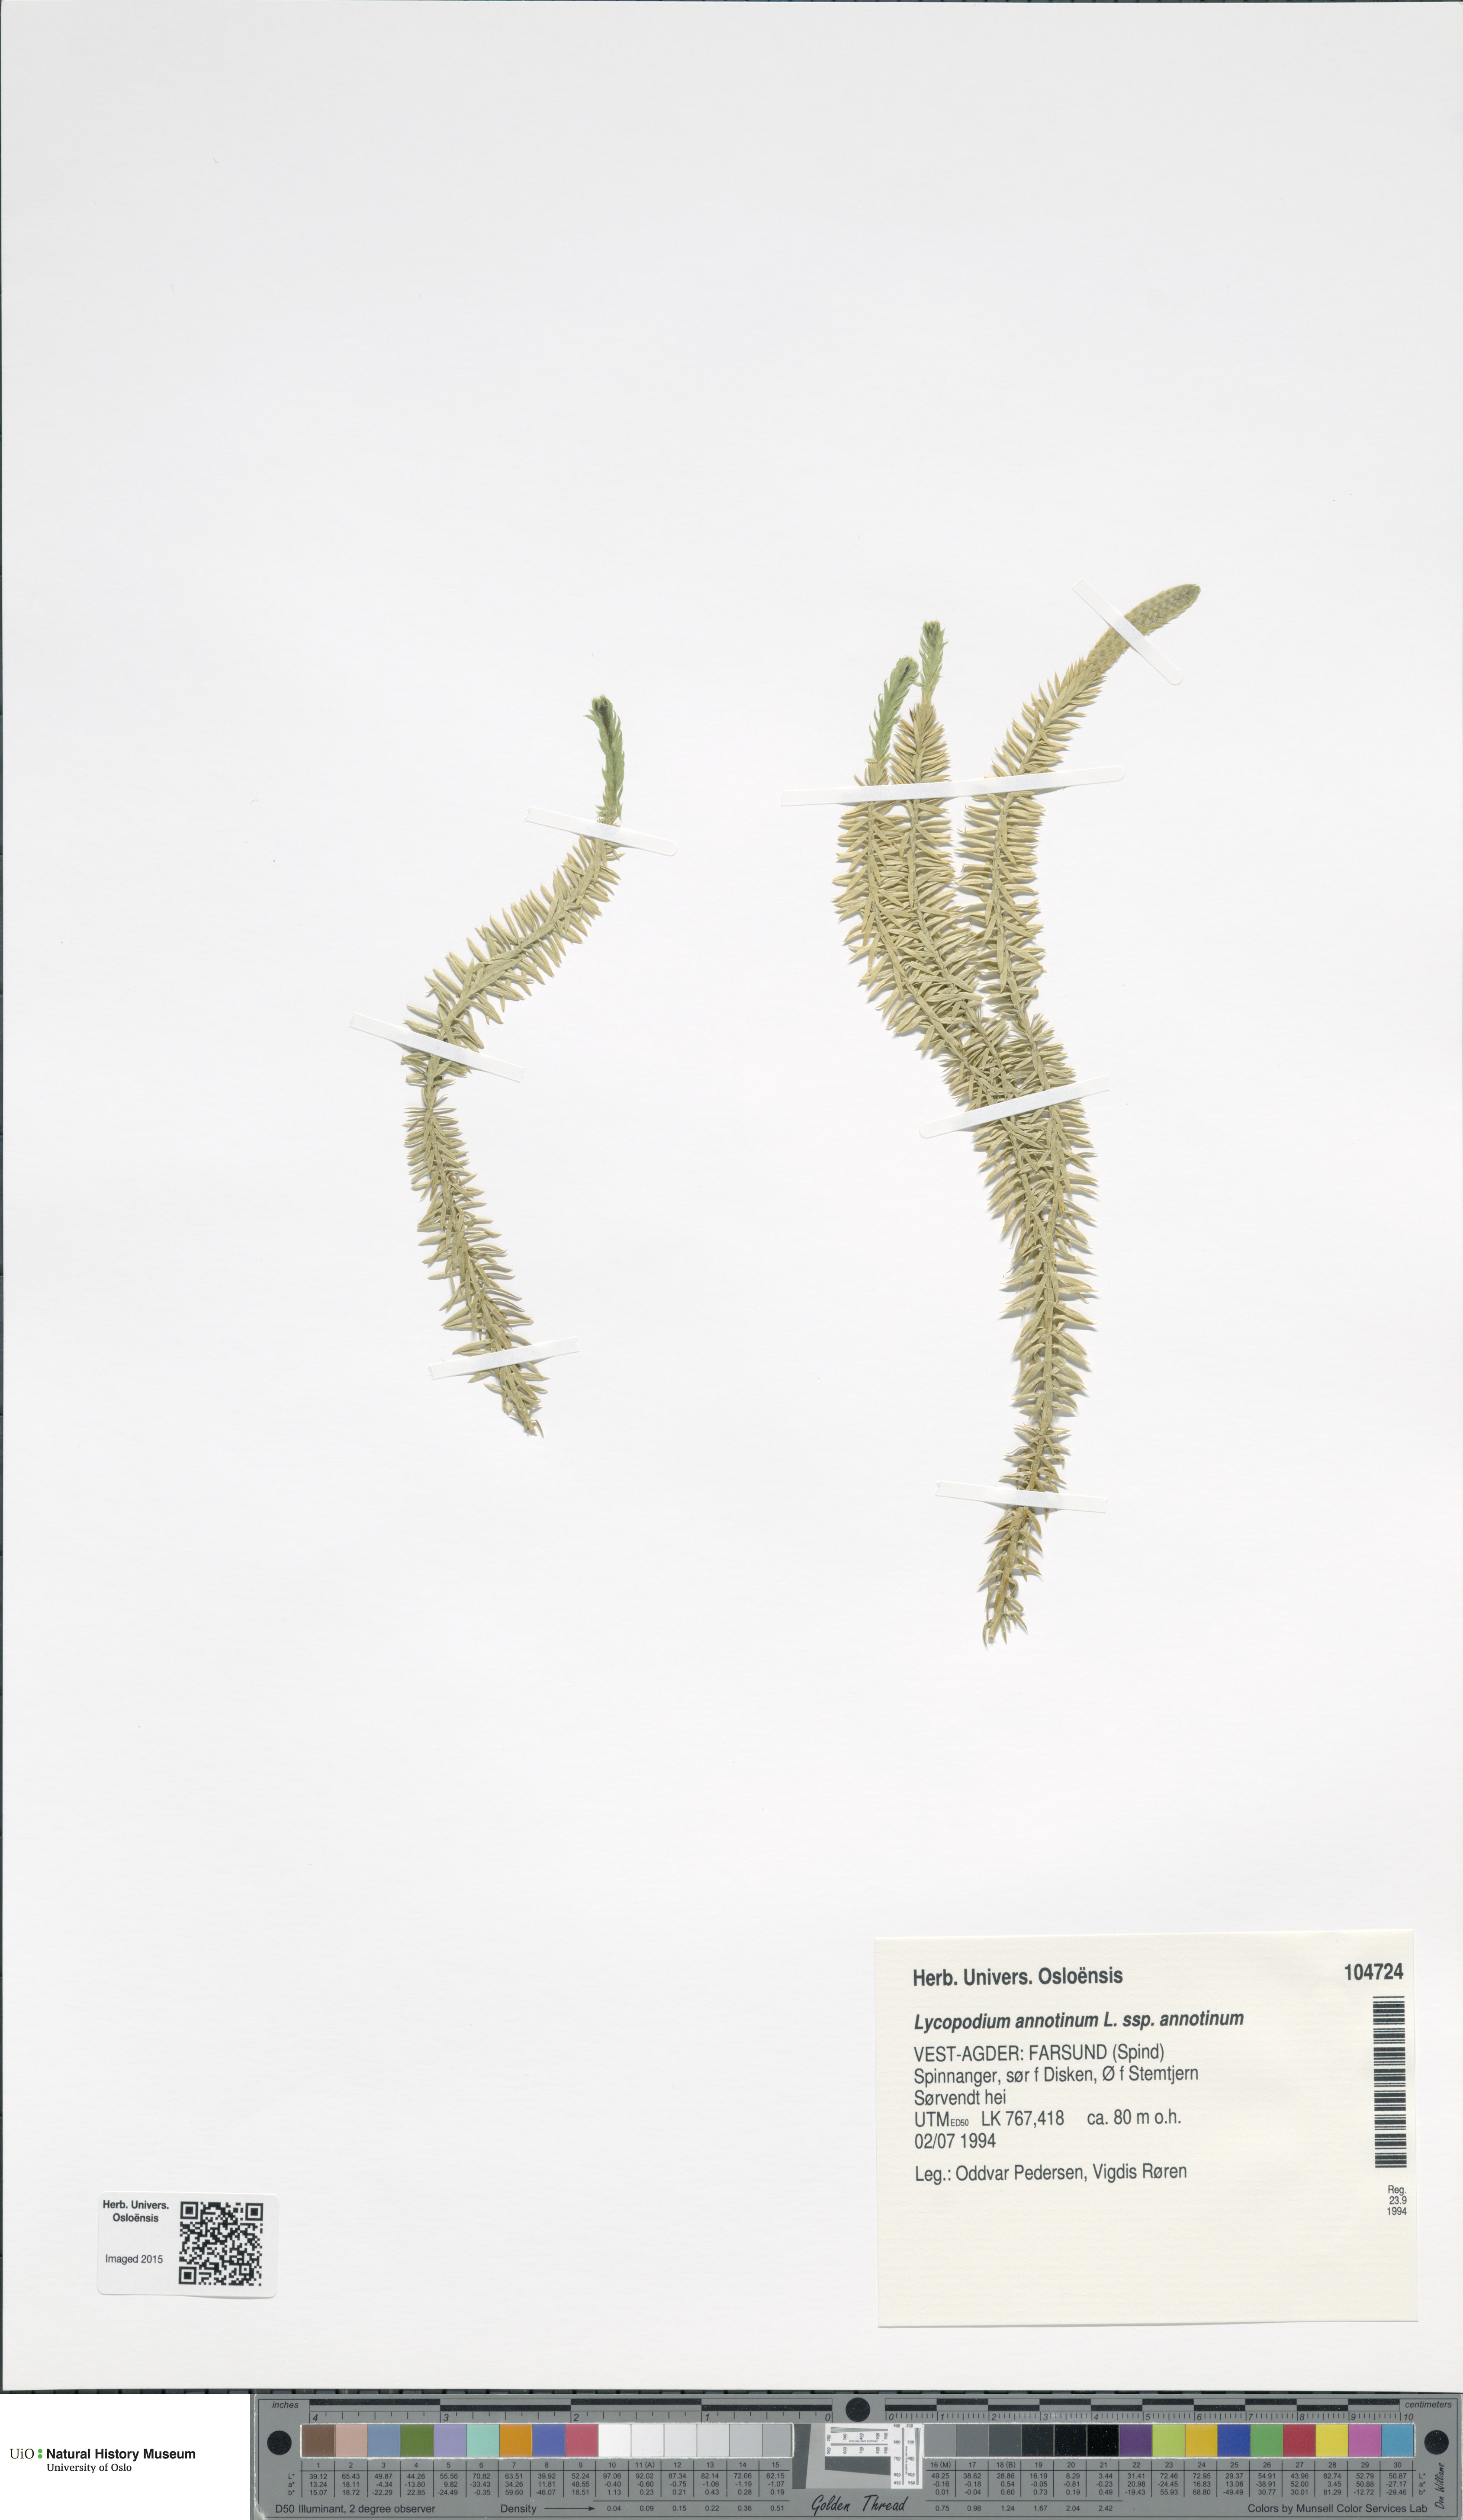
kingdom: Plantae
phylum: Tracheophyta
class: Lycopodiopsida
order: Lycopodiales
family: Lycopodiaceae
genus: Spinulum
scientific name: Spinulum annotinum
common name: Interrupted club-moss
